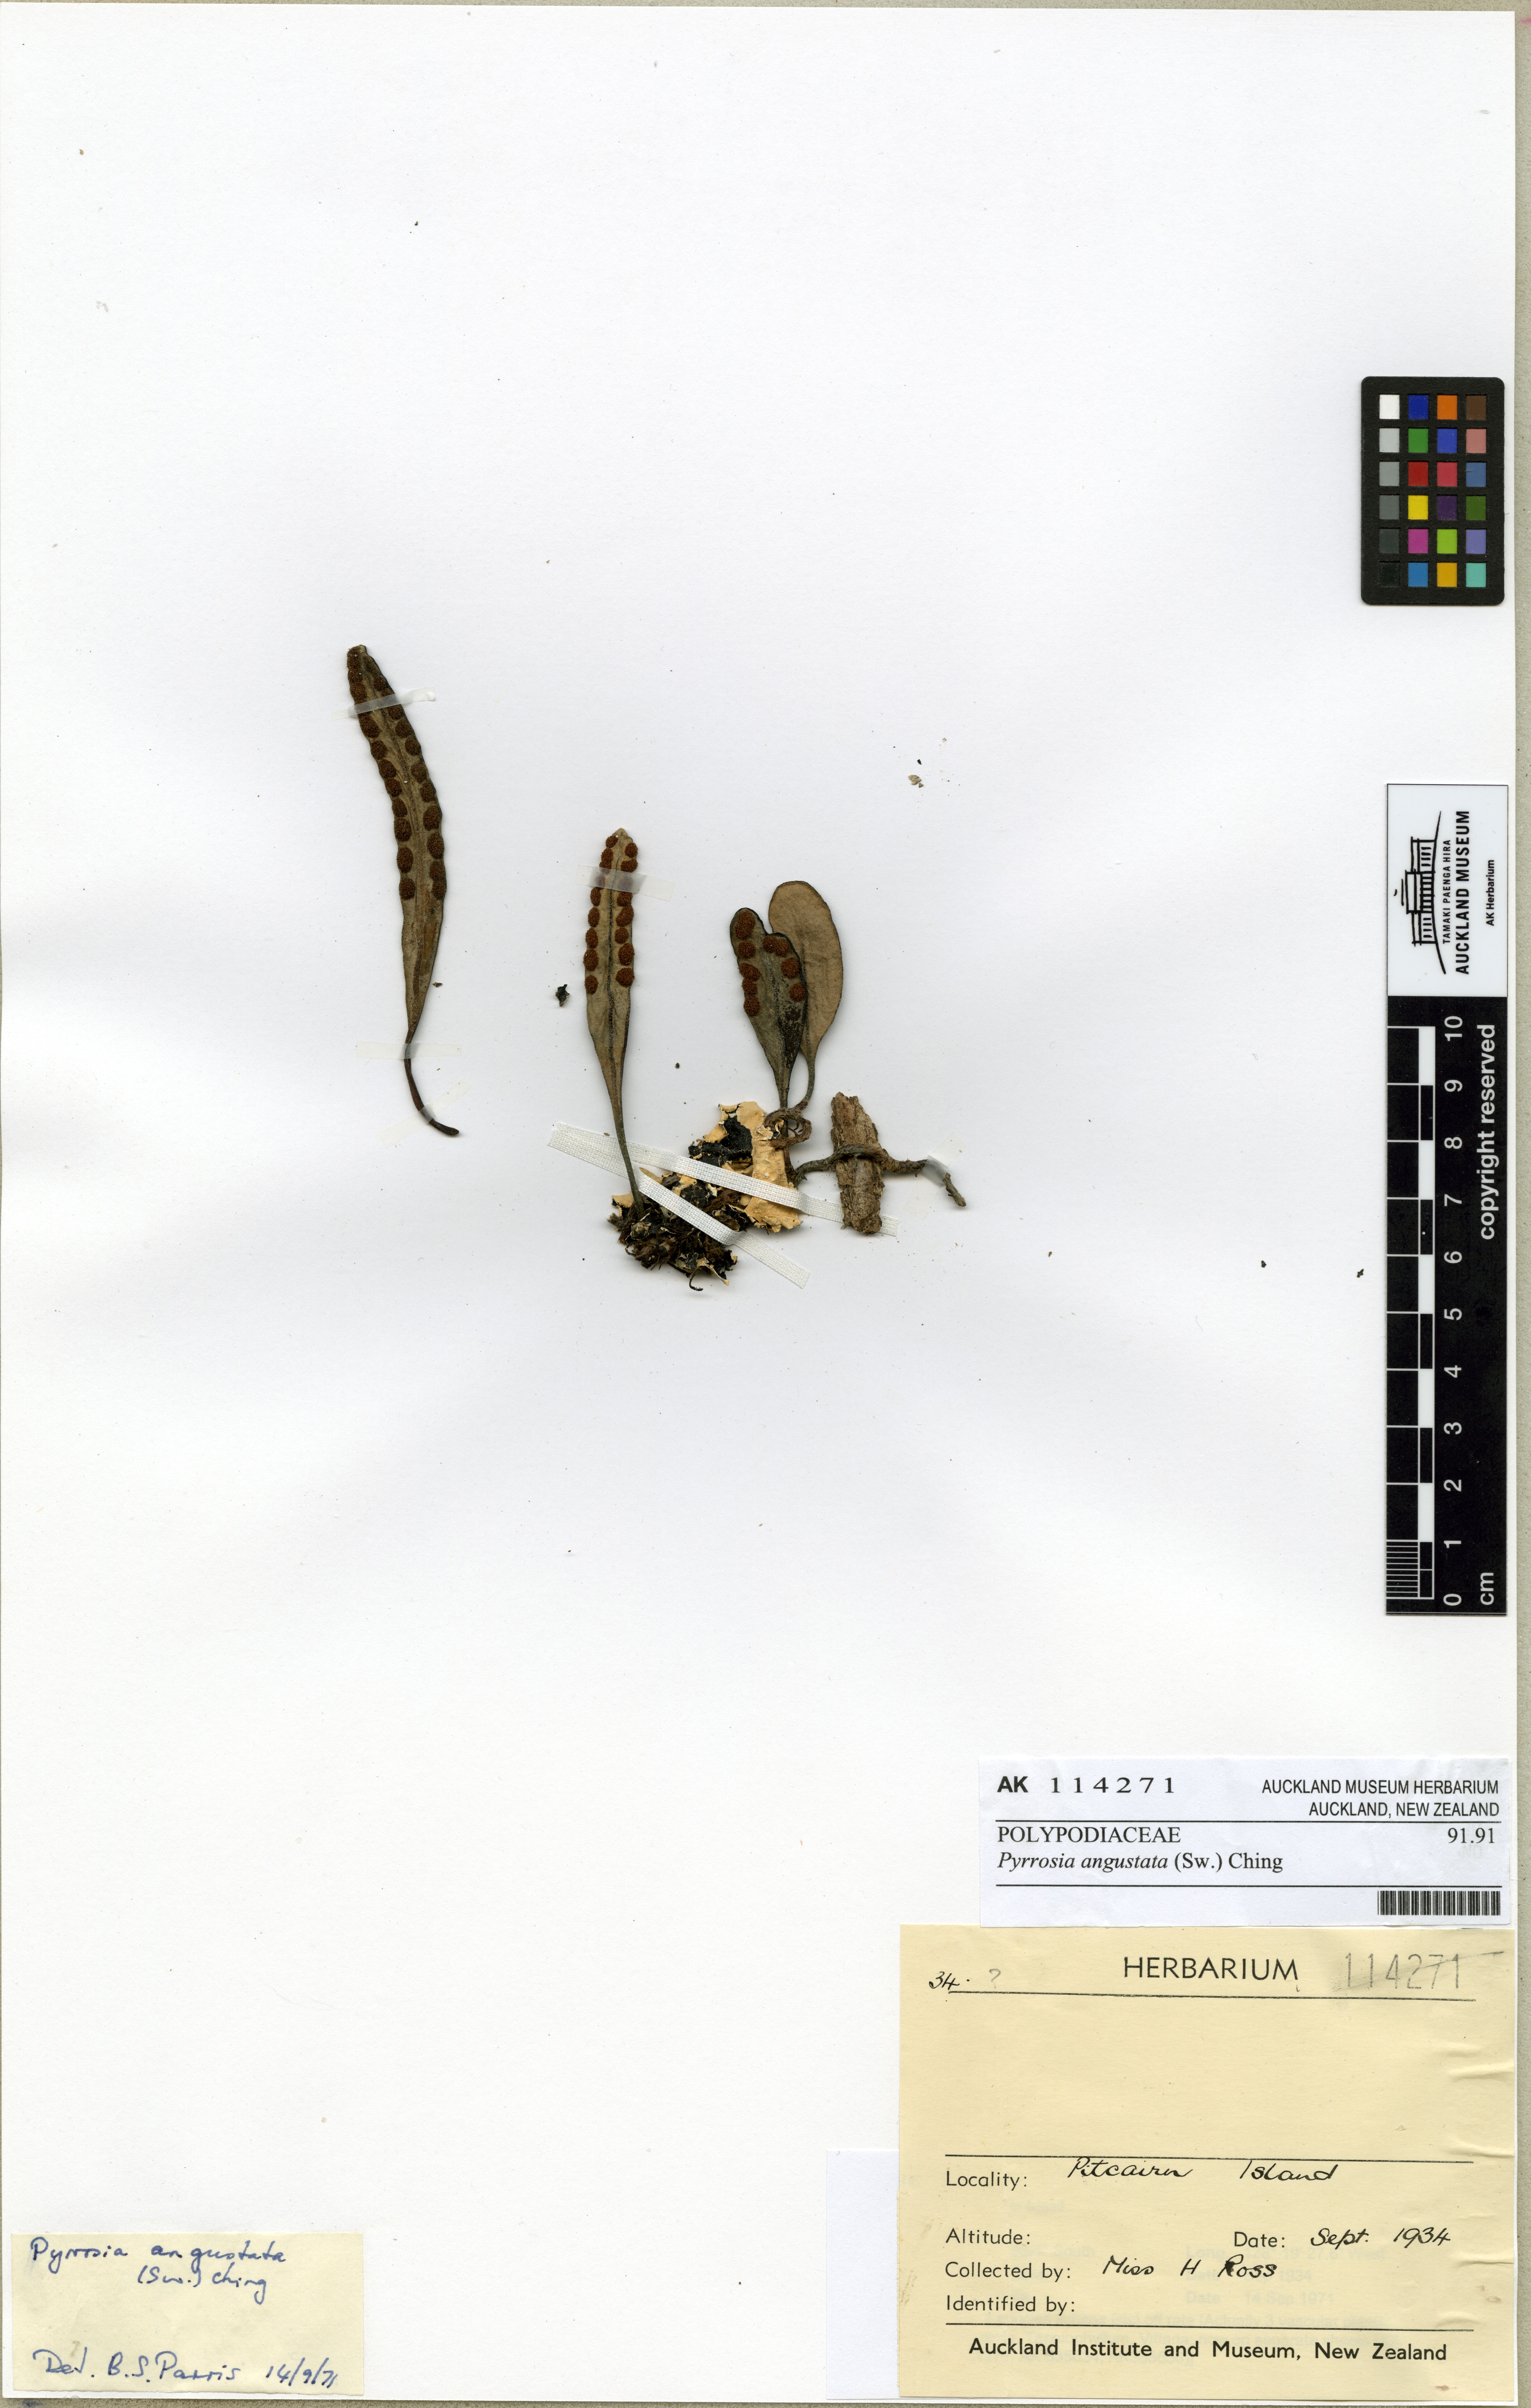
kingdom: Plantae
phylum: Tracheophyta
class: Polypodiopsida
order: Polypodiales
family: Polypodiaceae
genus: Pyrrosia
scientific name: Pyrrosia serpens
